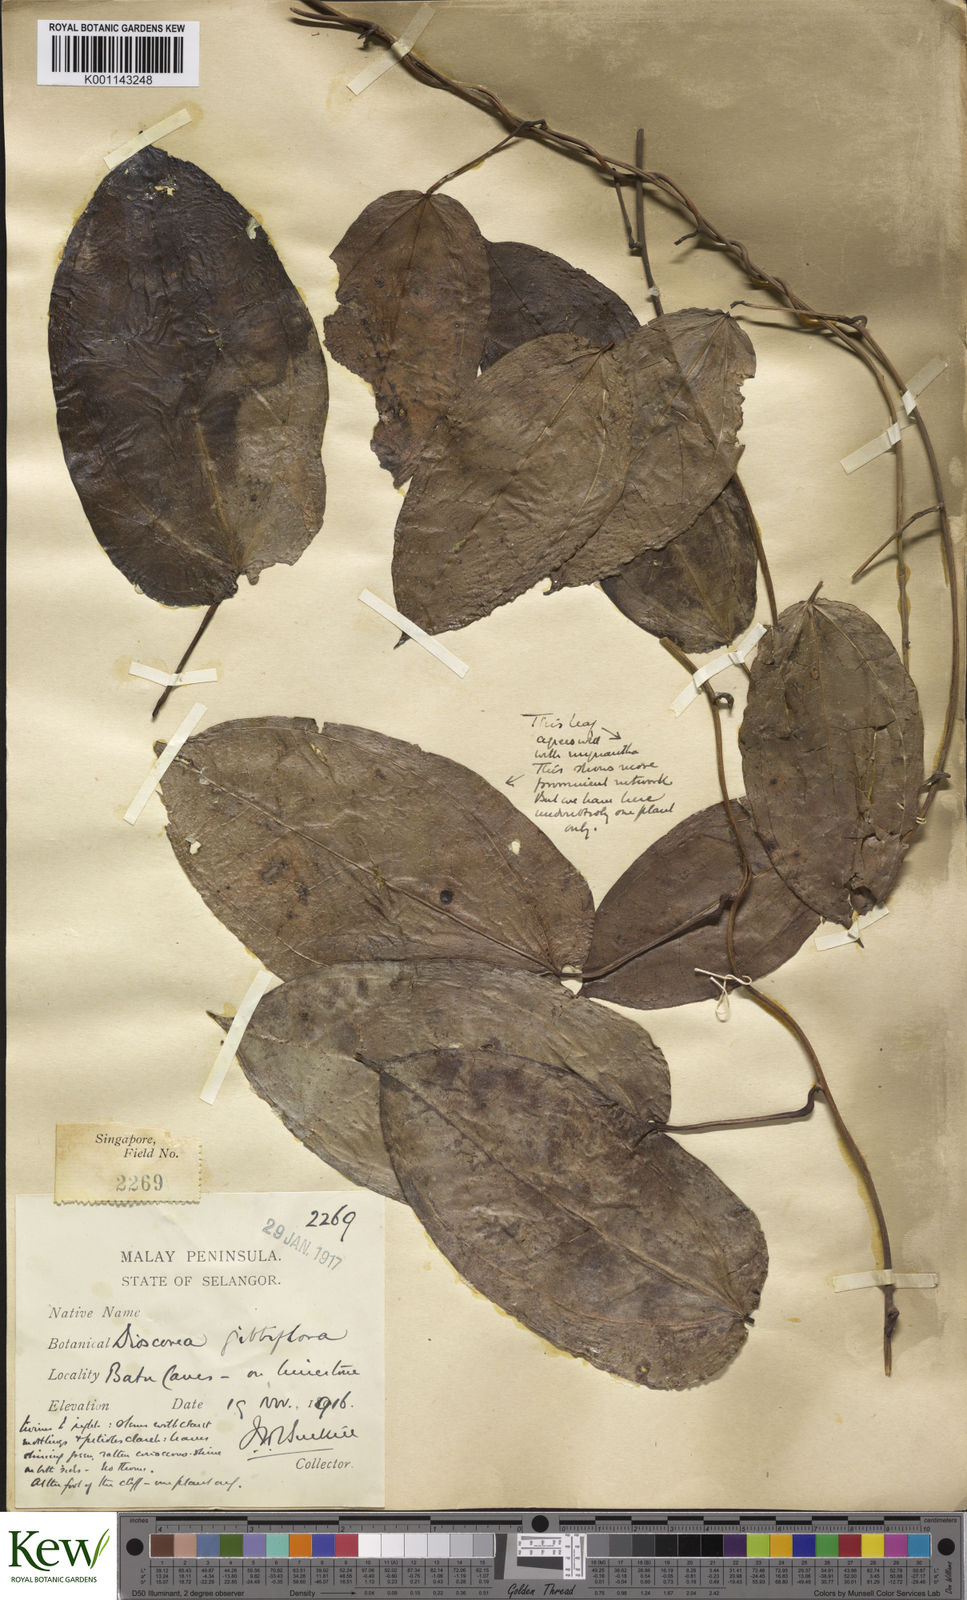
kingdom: Plantae
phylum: Tracheophyta
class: Liliopsida
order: Dioscoreales
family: Dioscoreaceae
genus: Dioscorea
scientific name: Dioscorea filiformis
